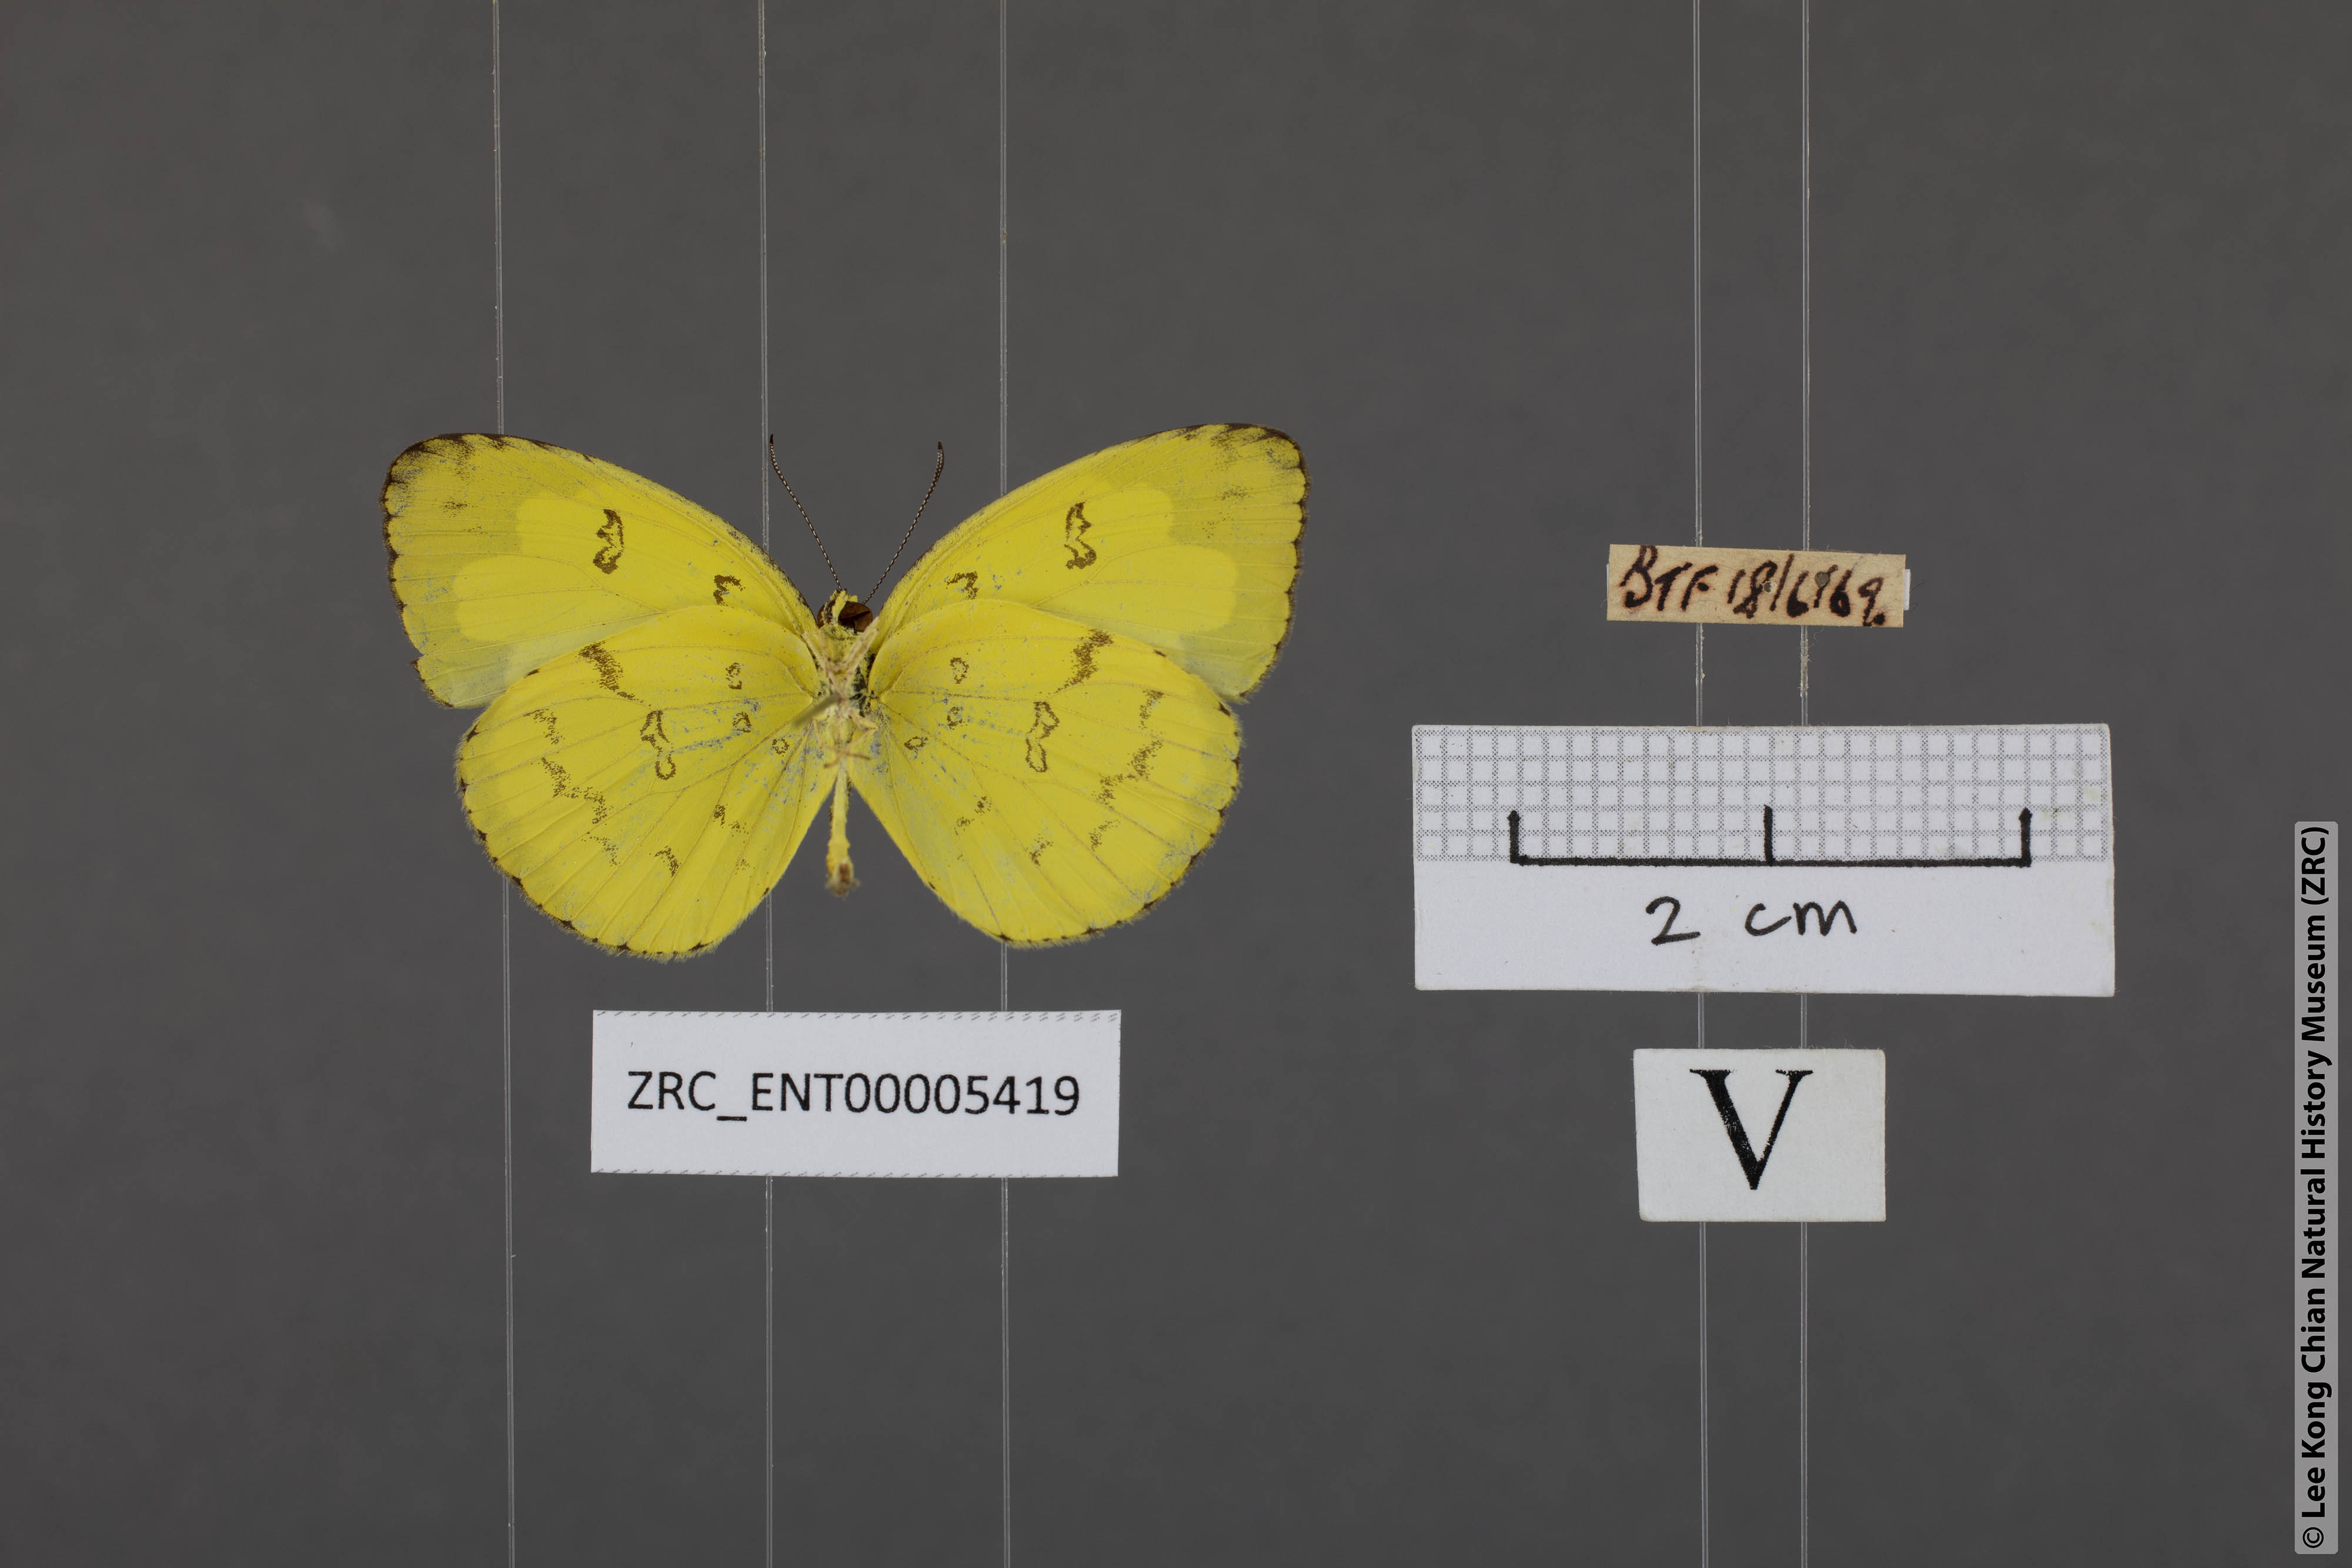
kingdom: Animalia
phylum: Arthropoda
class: Insecta
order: Lepidoptera
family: Pieridae
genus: Eurema
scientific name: Eurema andersoni
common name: One-spot yellow grass
